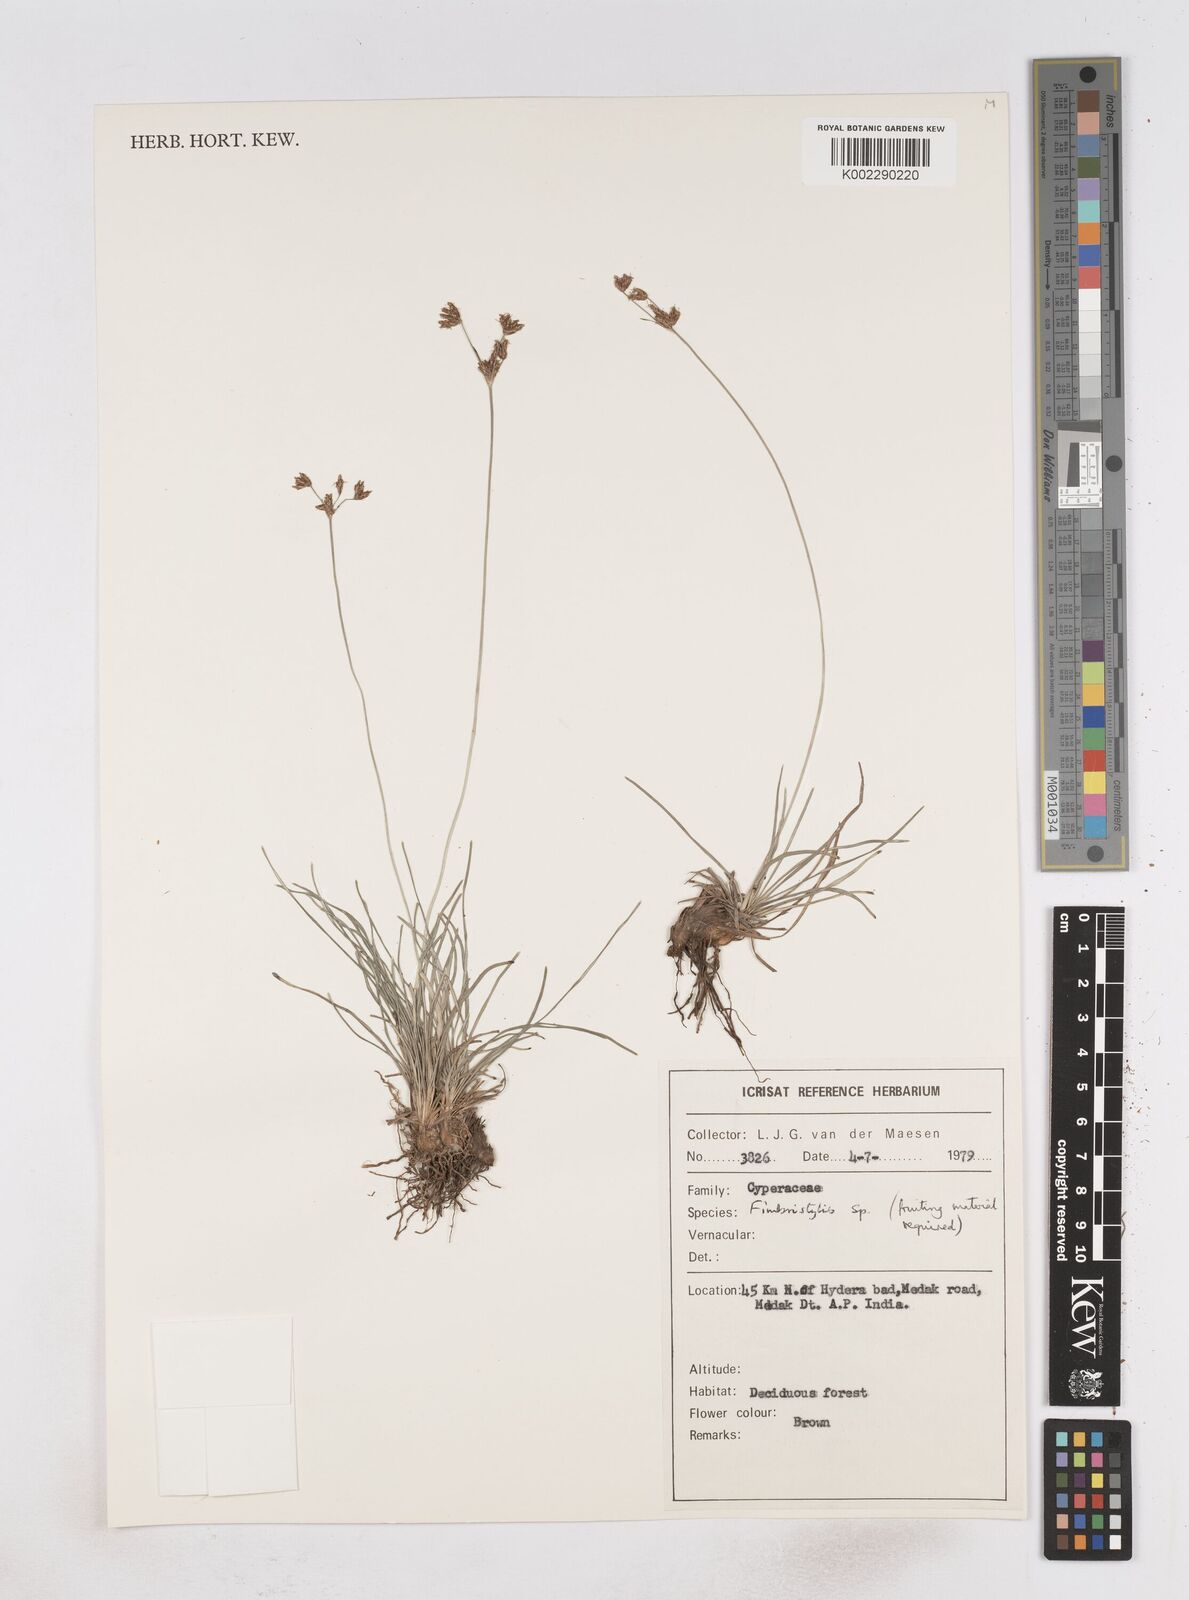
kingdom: Plantae
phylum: Tracheophyta
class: Liliopsida
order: Poales
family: Cyperaceae
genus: Fimbristylis
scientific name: Fimbristylis
